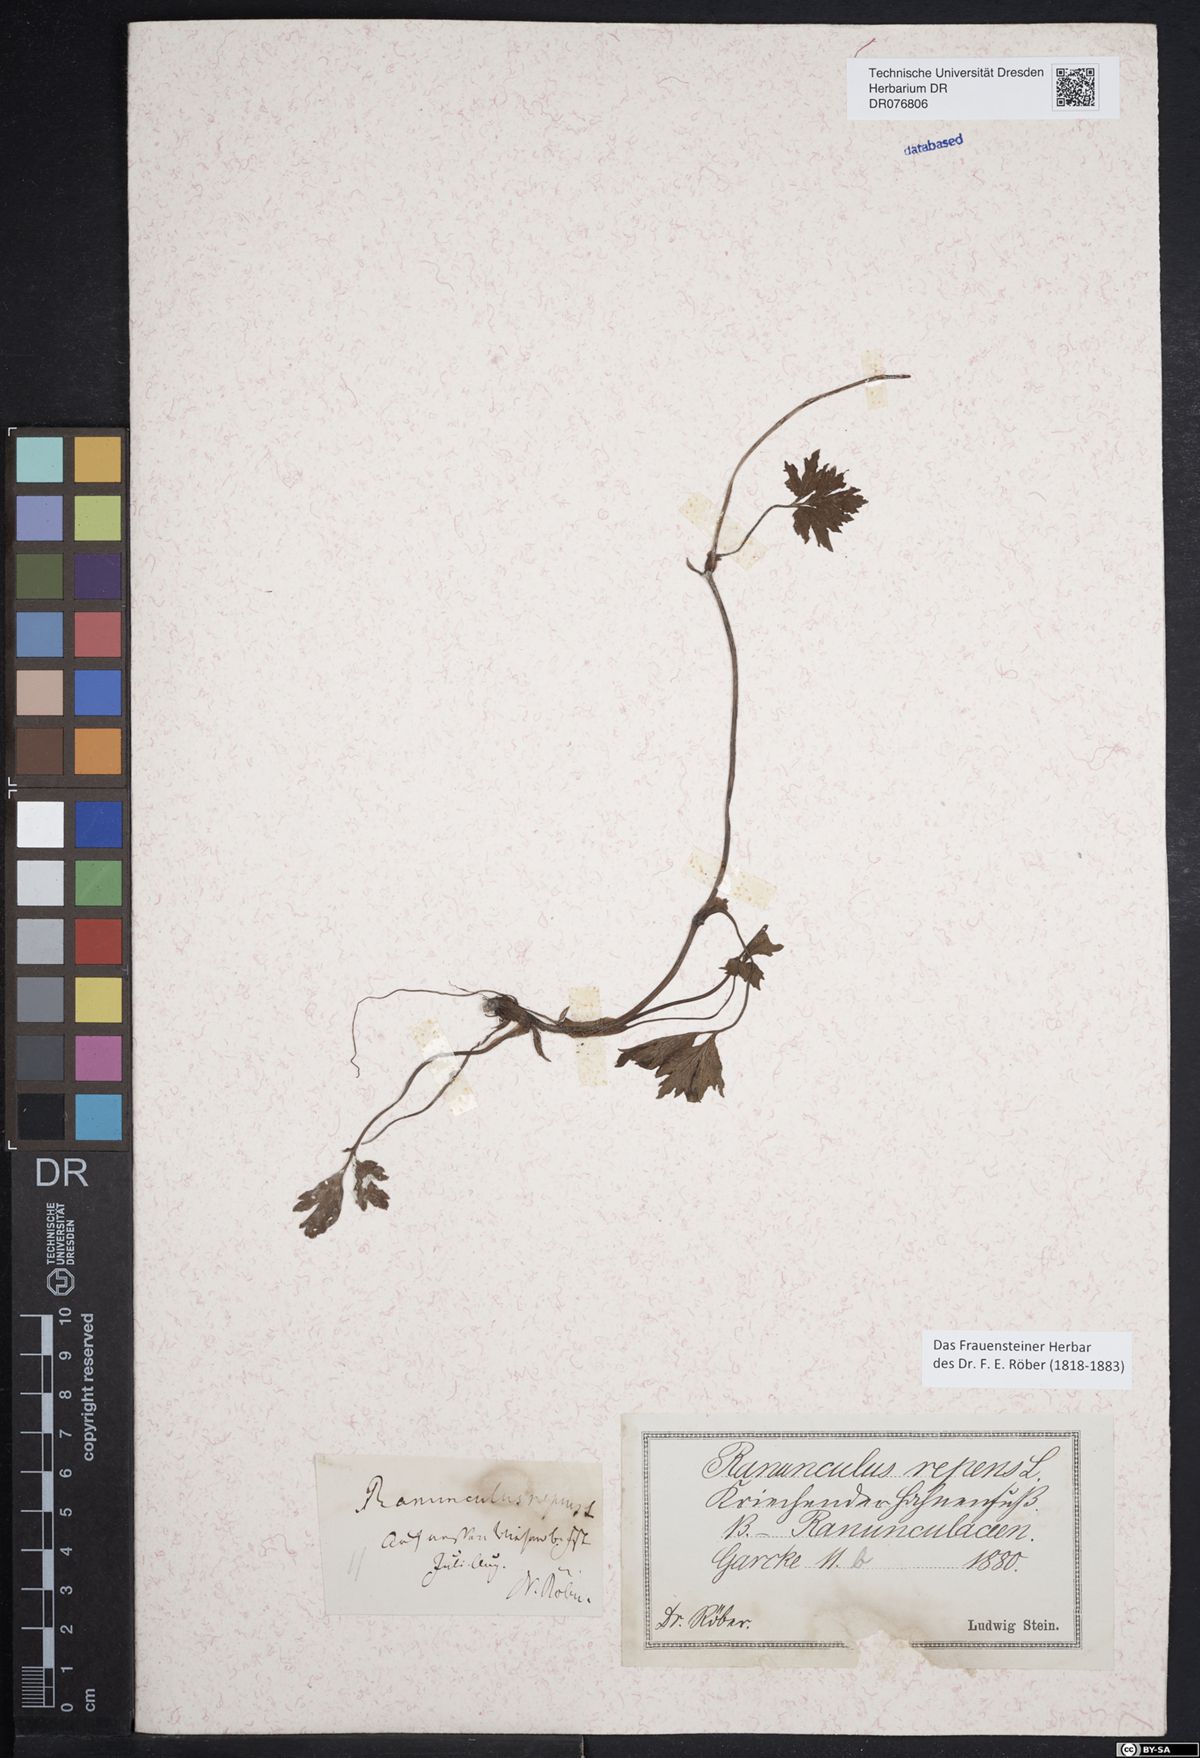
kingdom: Plantae
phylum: Tracheophyta
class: Magnoliopsida
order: Ranunculales
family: Ranunculaceae
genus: Ranunculus
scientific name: Ranunculus repens
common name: Creeping buttercup
